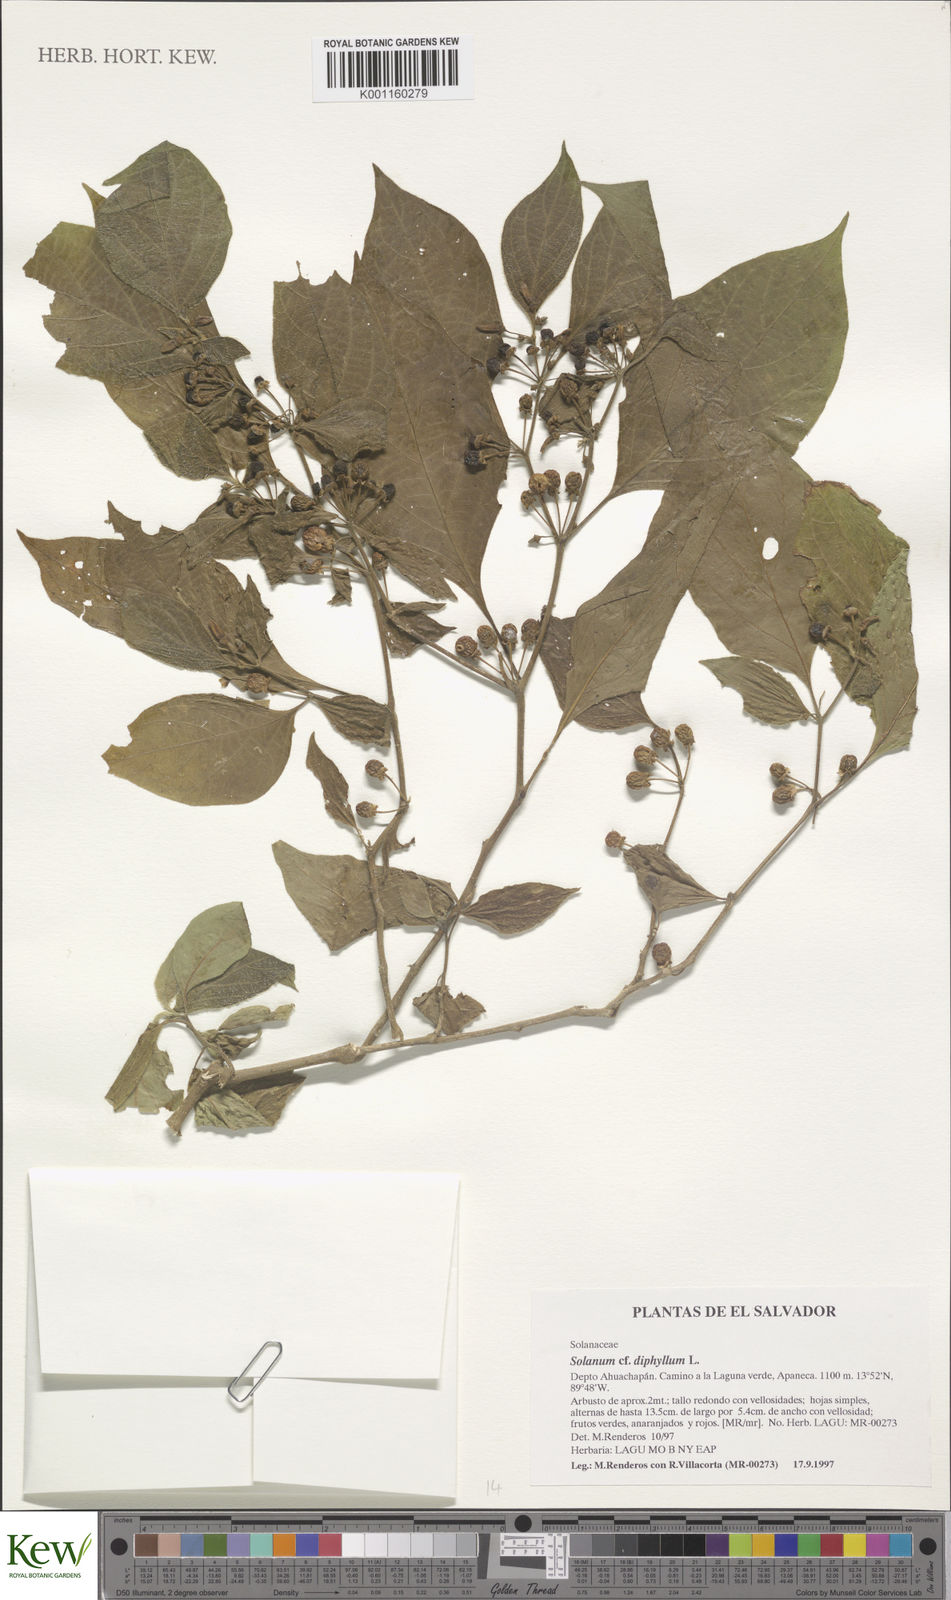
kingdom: Plantae
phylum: Tracheophyta
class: Magnoliopsida
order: Solanales
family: Solanaceae
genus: Solanum
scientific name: Solanum diphyllum
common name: Twoleaf nightshade
